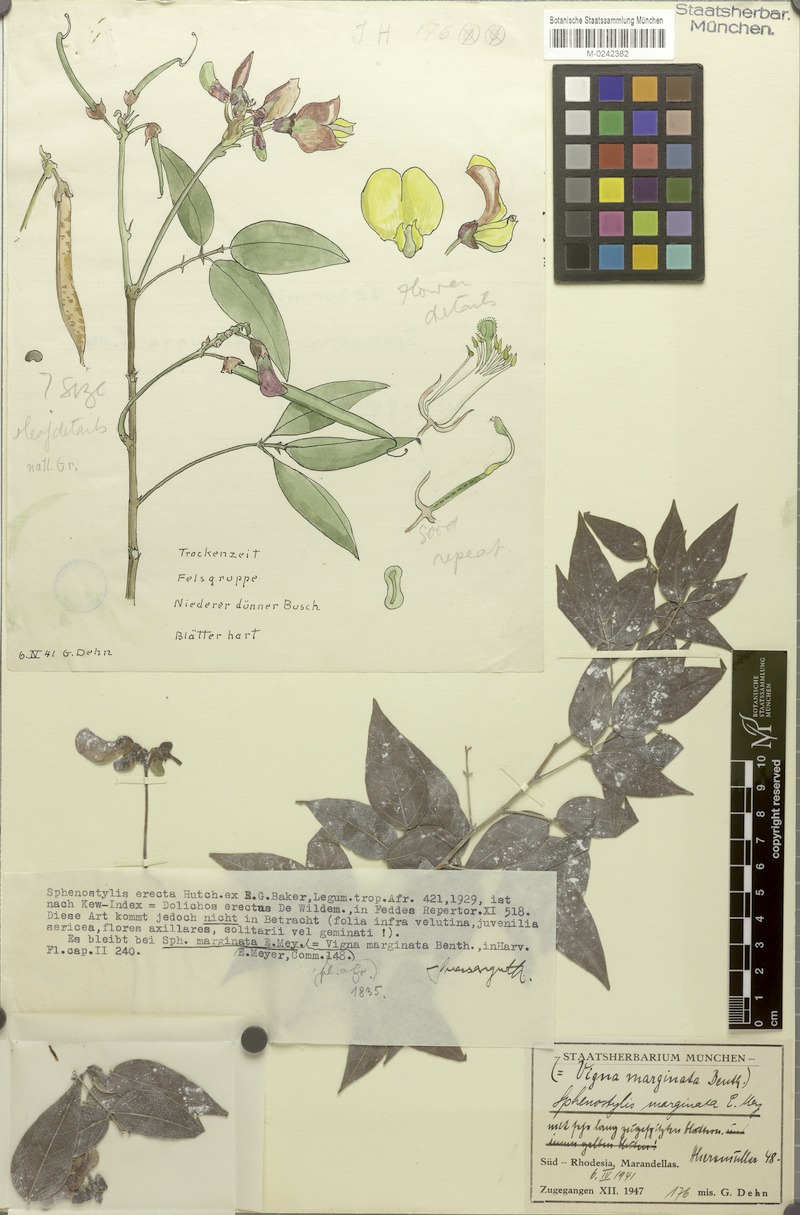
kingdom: Plantae
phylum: Tracheophyta
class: Magnoliopsida
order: Fabales
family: Fabaceae
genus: Sphenostylis
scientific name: Sphenostylis marginata
